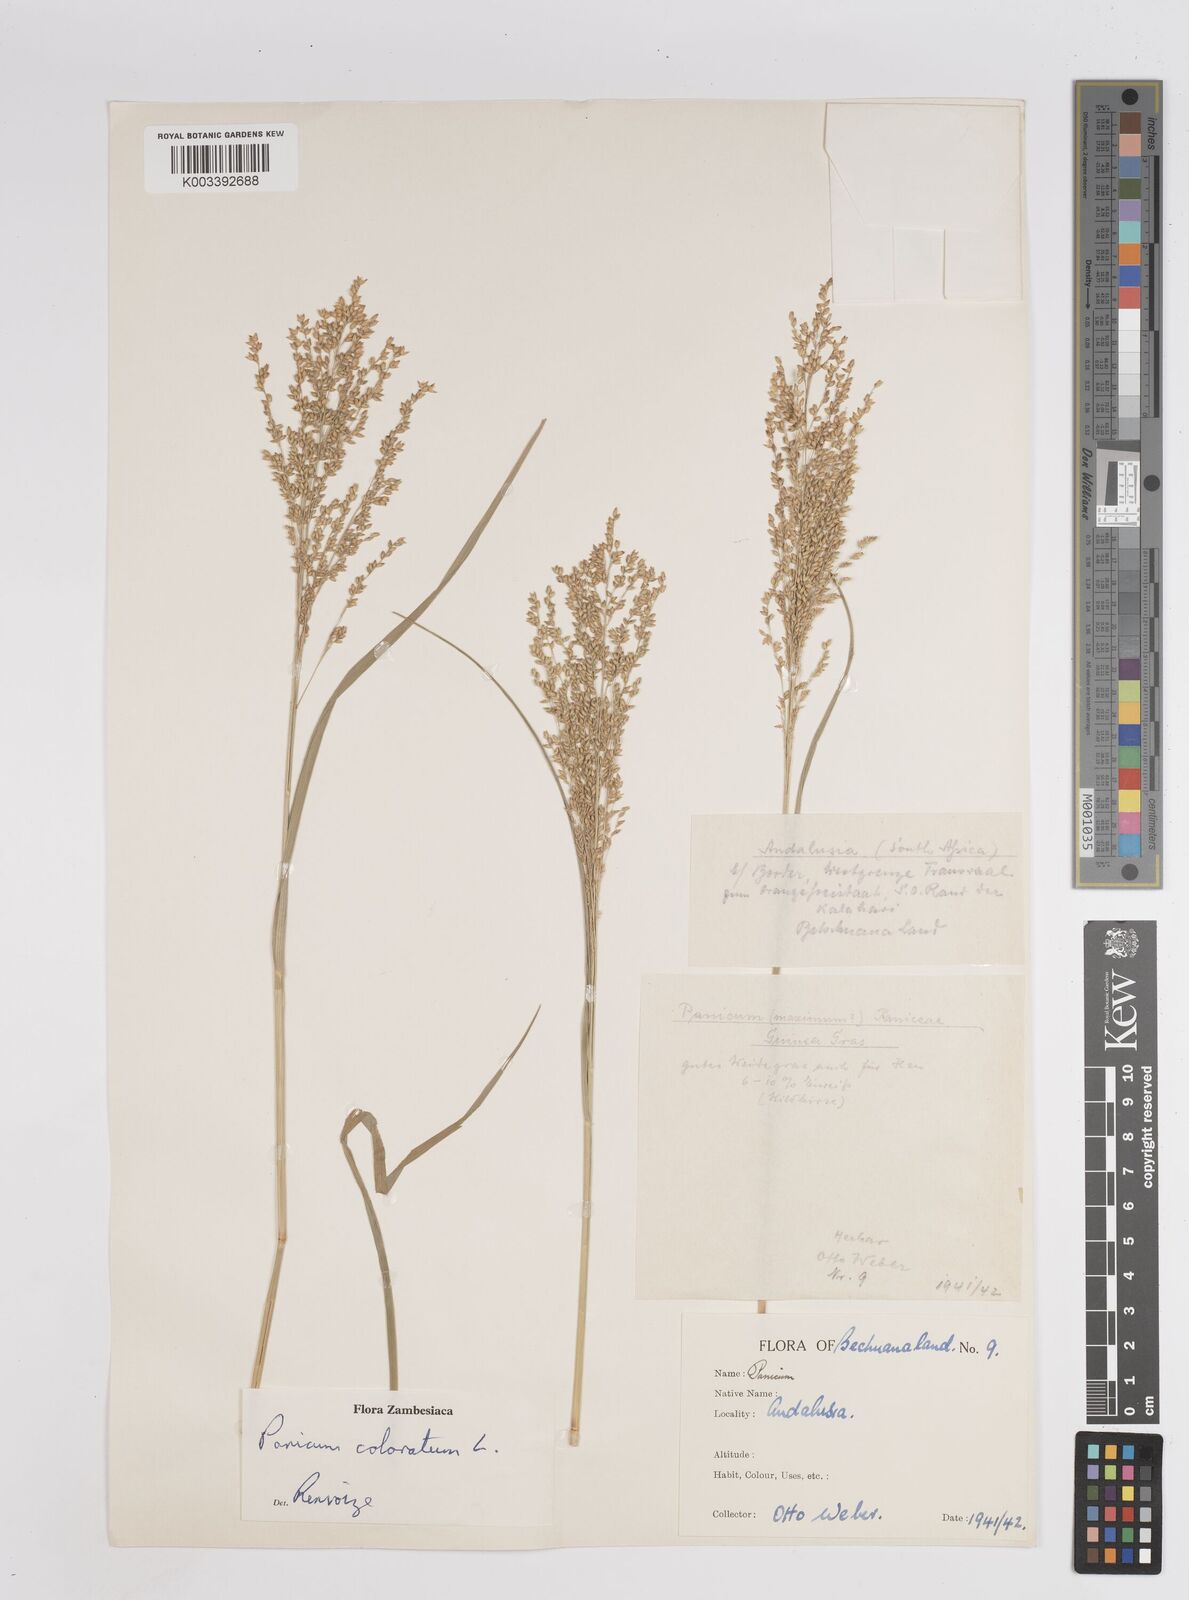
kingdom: Plantae
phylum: Tracheophyta
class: Liliopsida
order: Poales
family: Poaceae
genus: Panicum
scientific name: Panicum coloratum
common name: Kleingrass
